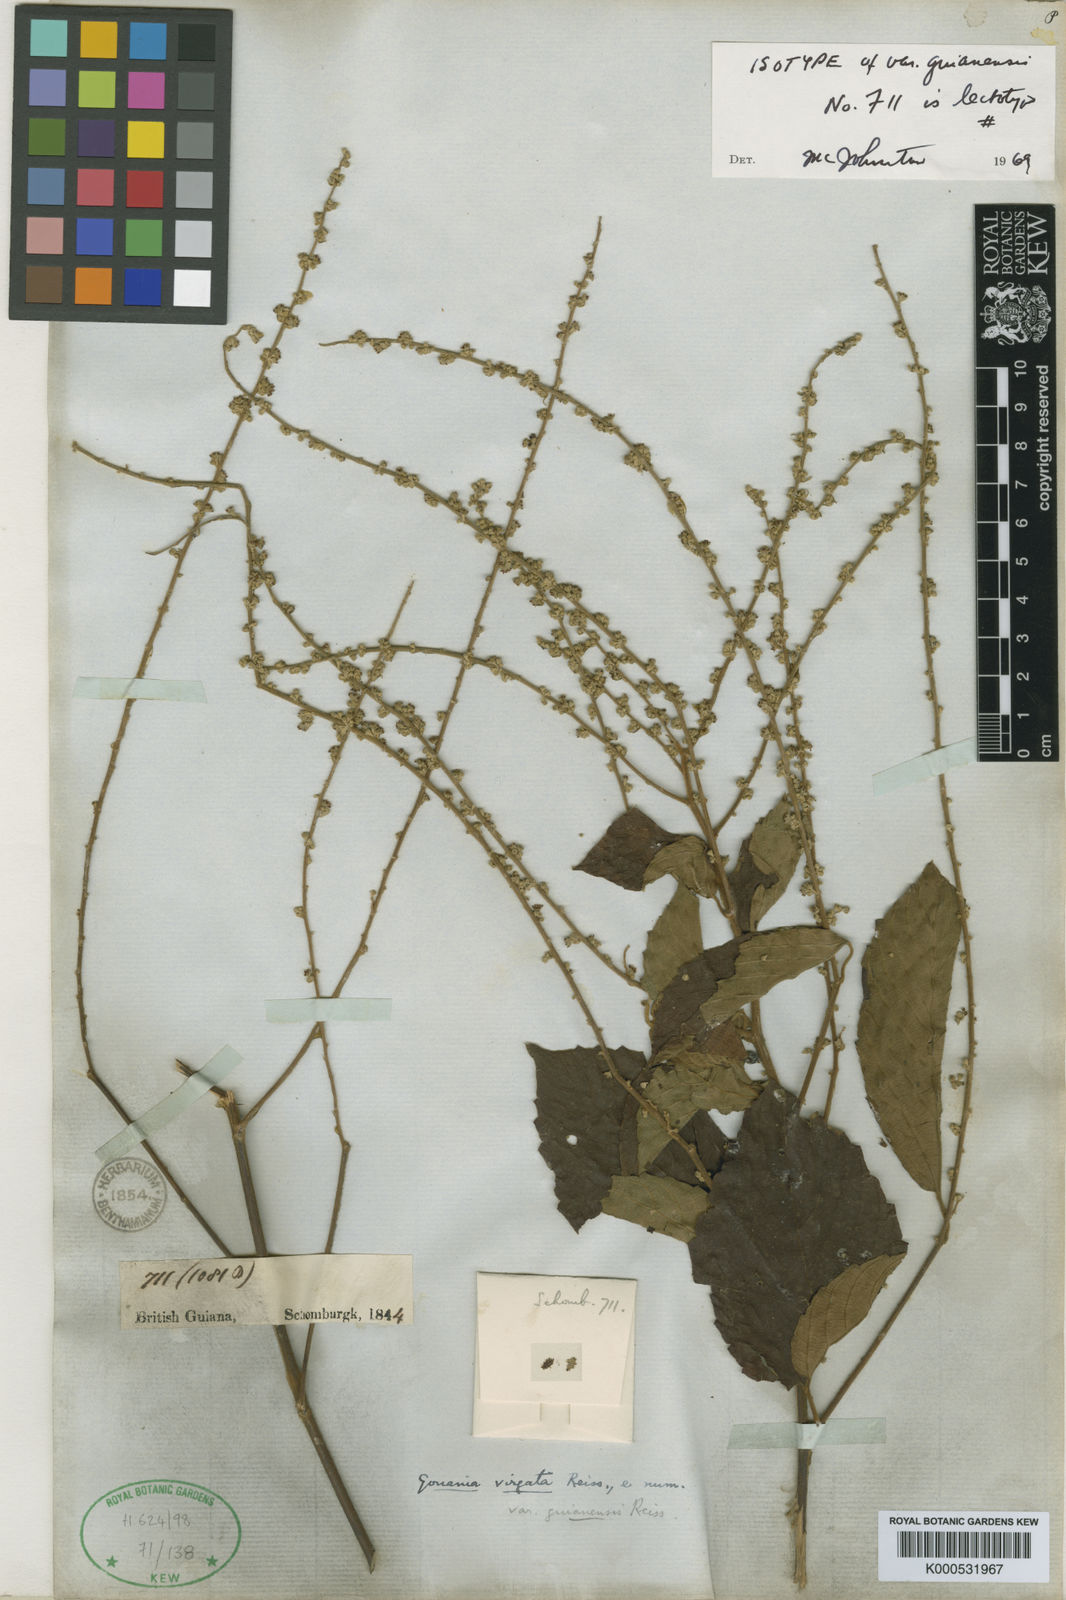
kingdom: Plantae
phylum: Tracheophyta
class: Magnoliopsida
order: Rosales
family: Rhamnaceae
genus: Gouania
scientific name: Gouania polygama
